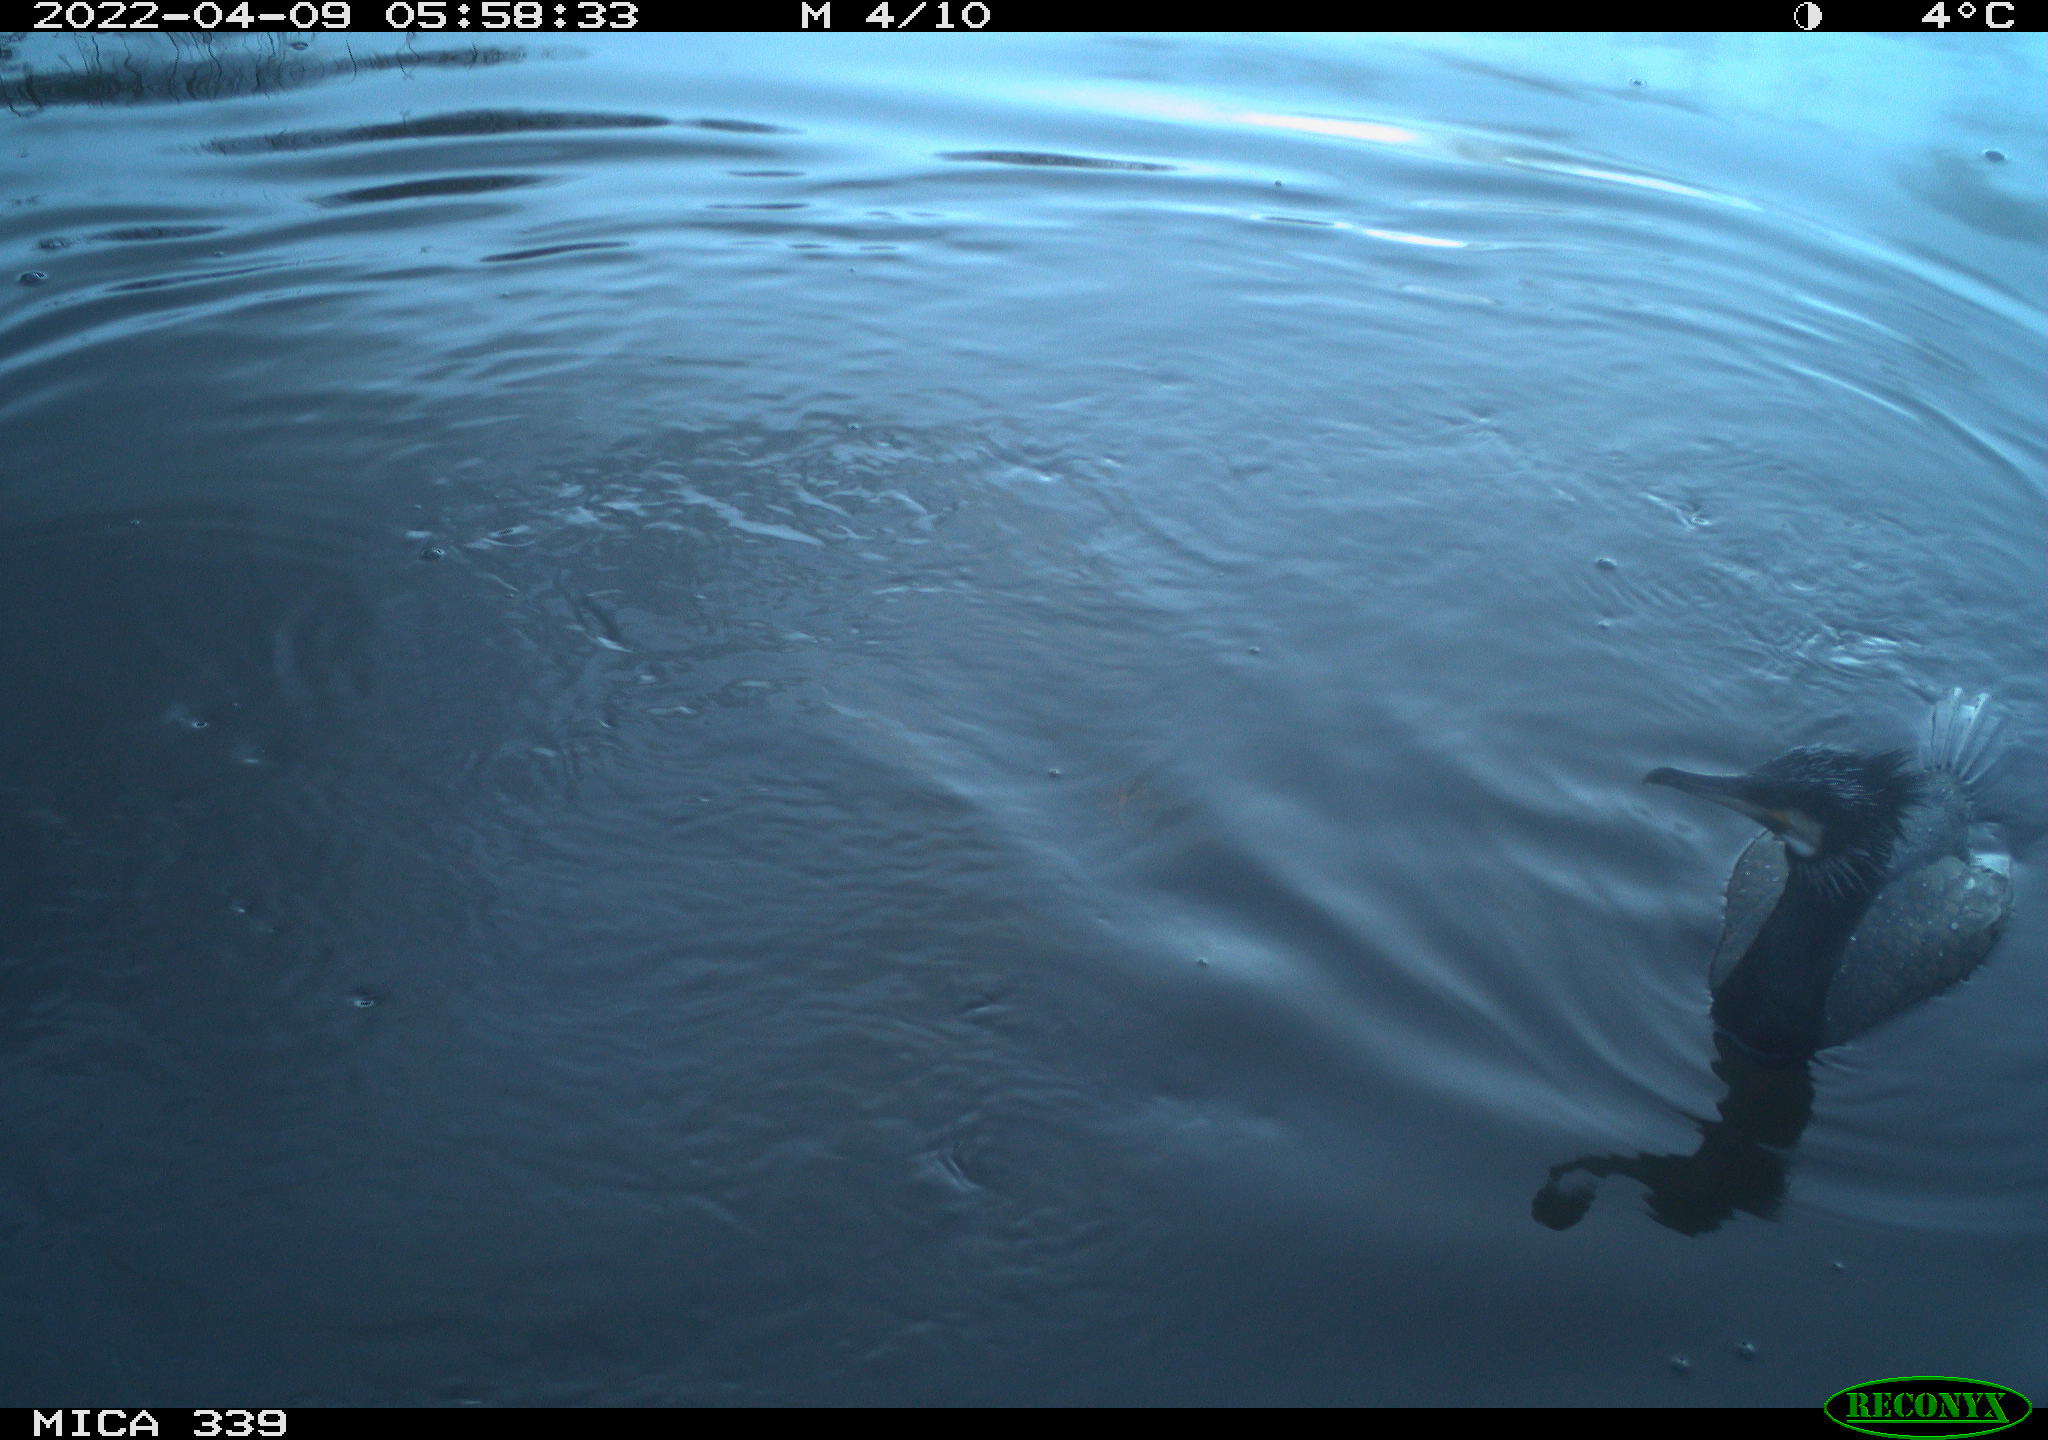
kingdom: Animalia
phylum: Chordata
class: Aves
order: Suliformes
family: Phalacrocoracidae
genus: Phalacrocorax
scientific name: Phalacrocorax carbo
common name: Great cormorant
